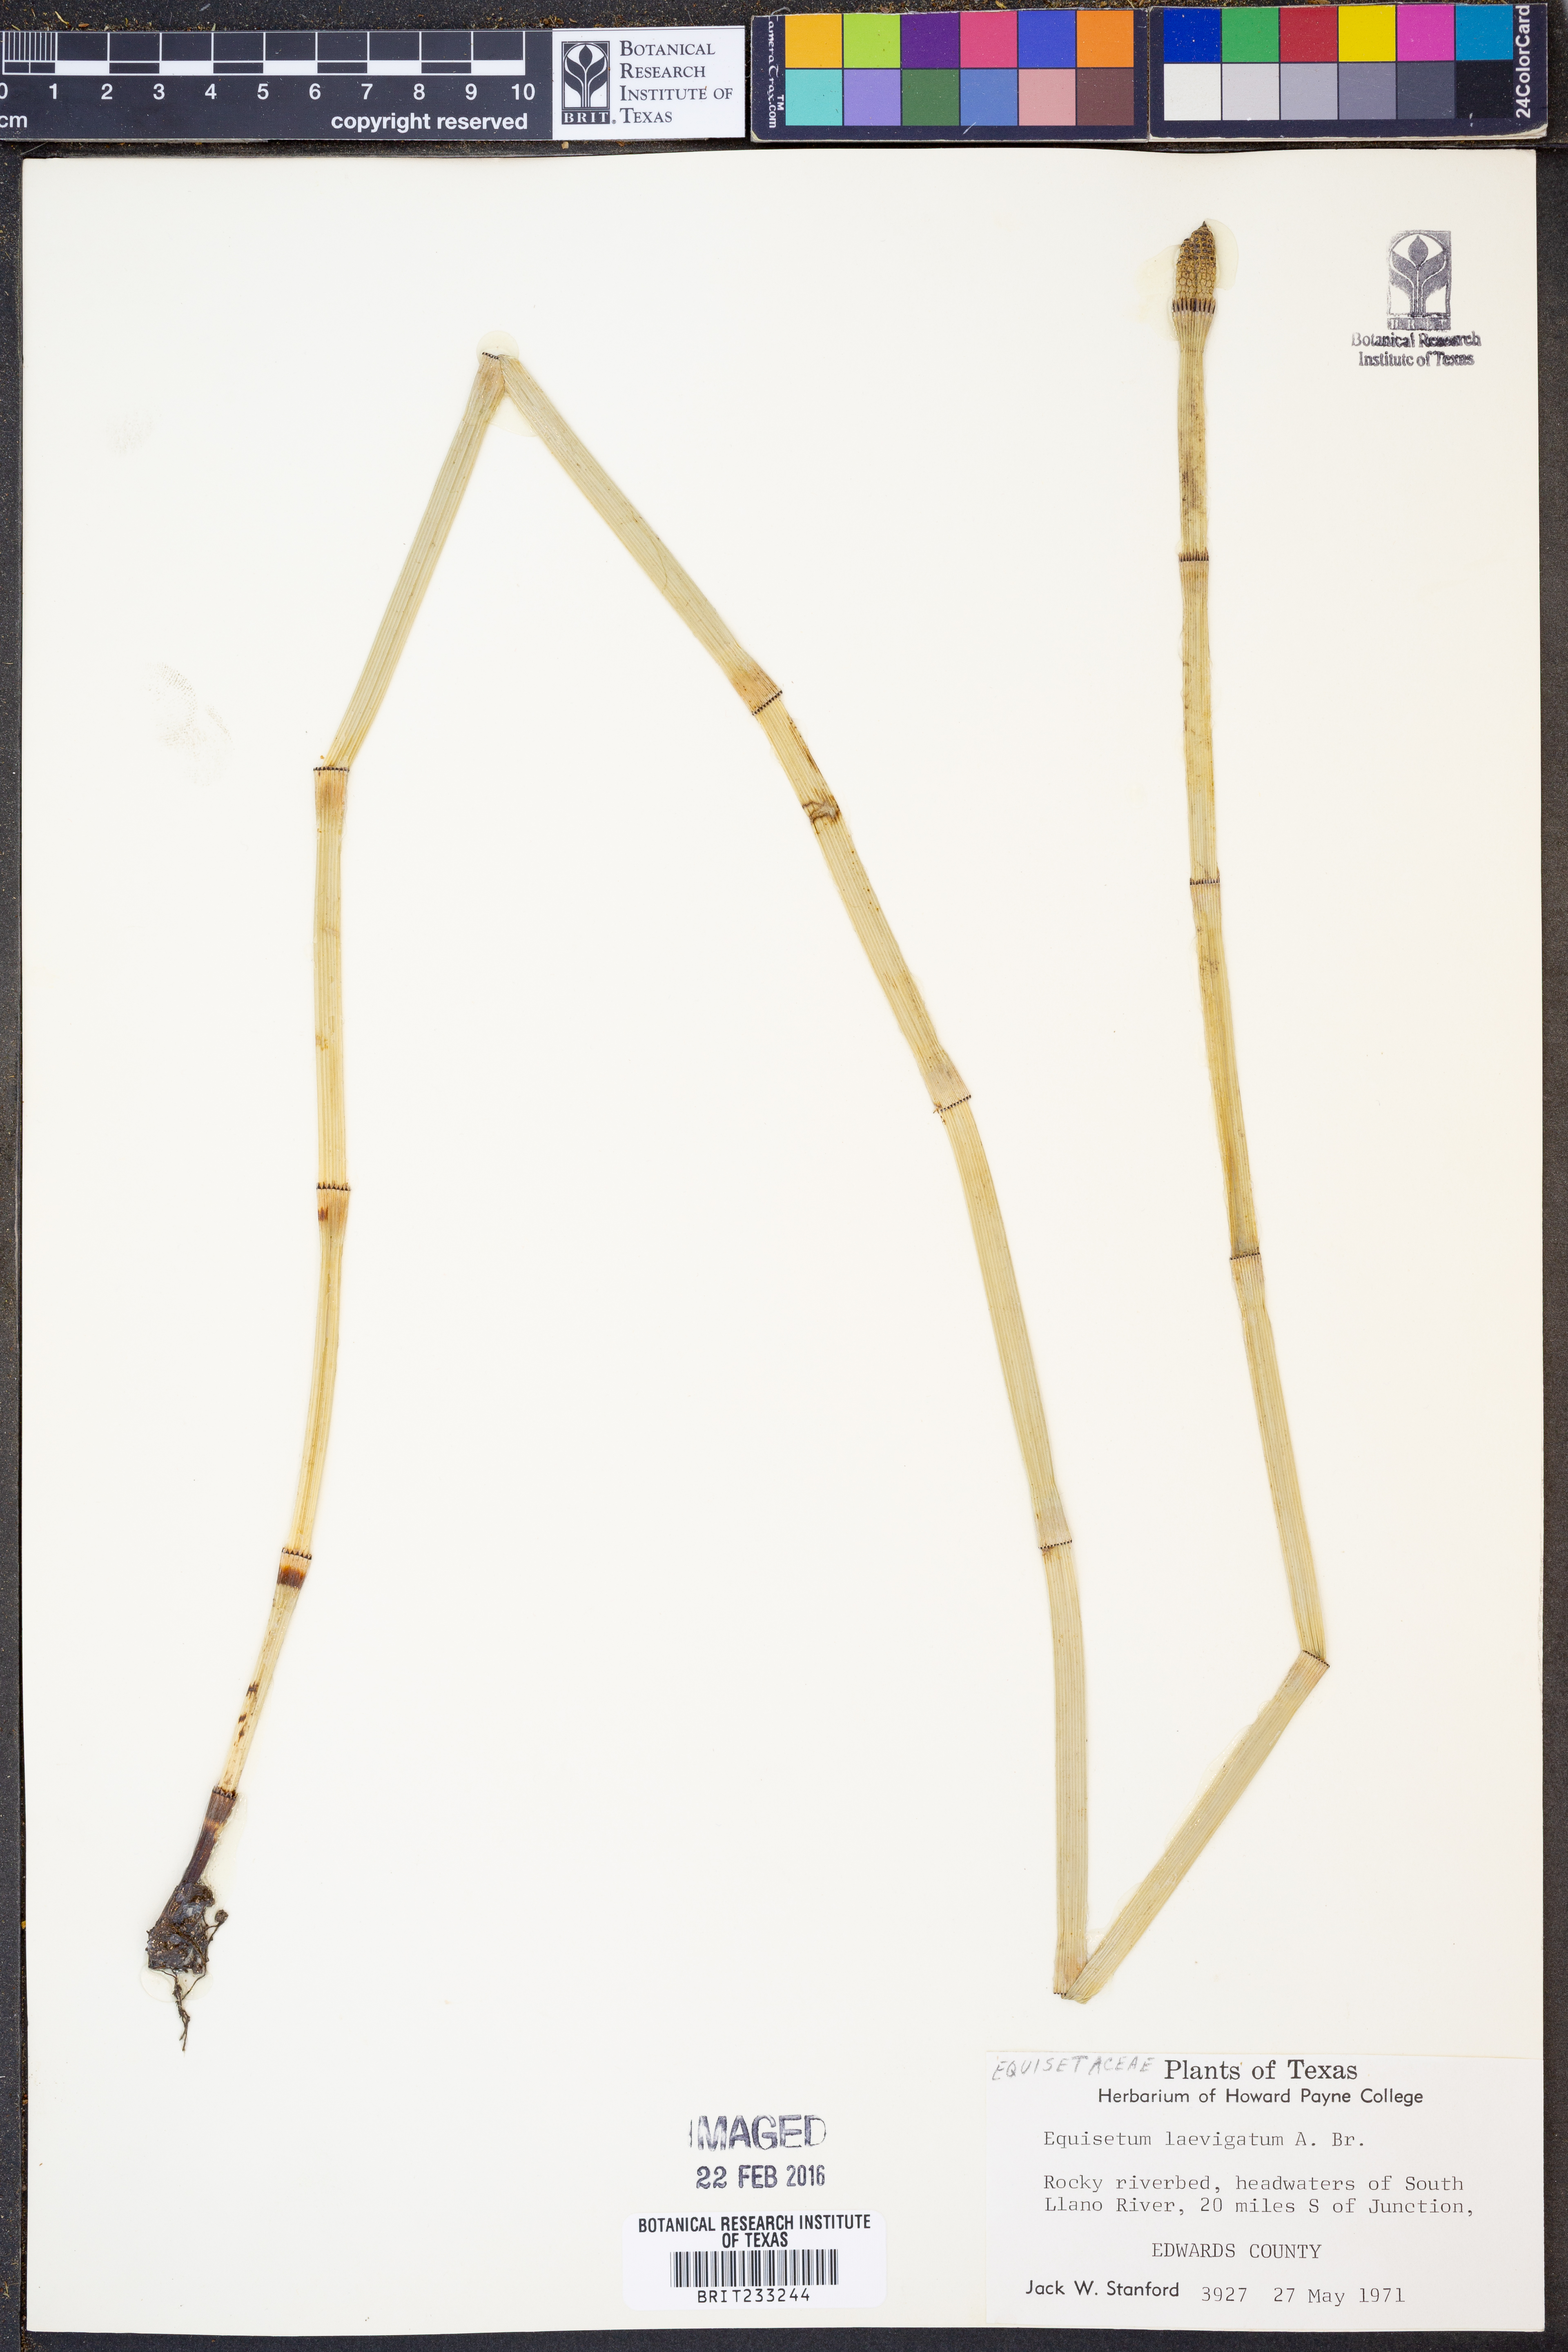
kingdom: Plantae
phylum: Tracheophyta
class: Polypodiopsida
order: Equisetales
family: Equisetaceae
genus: Equisetum
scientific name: Equisetum laevigatum
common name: Smooth scouring-rush
